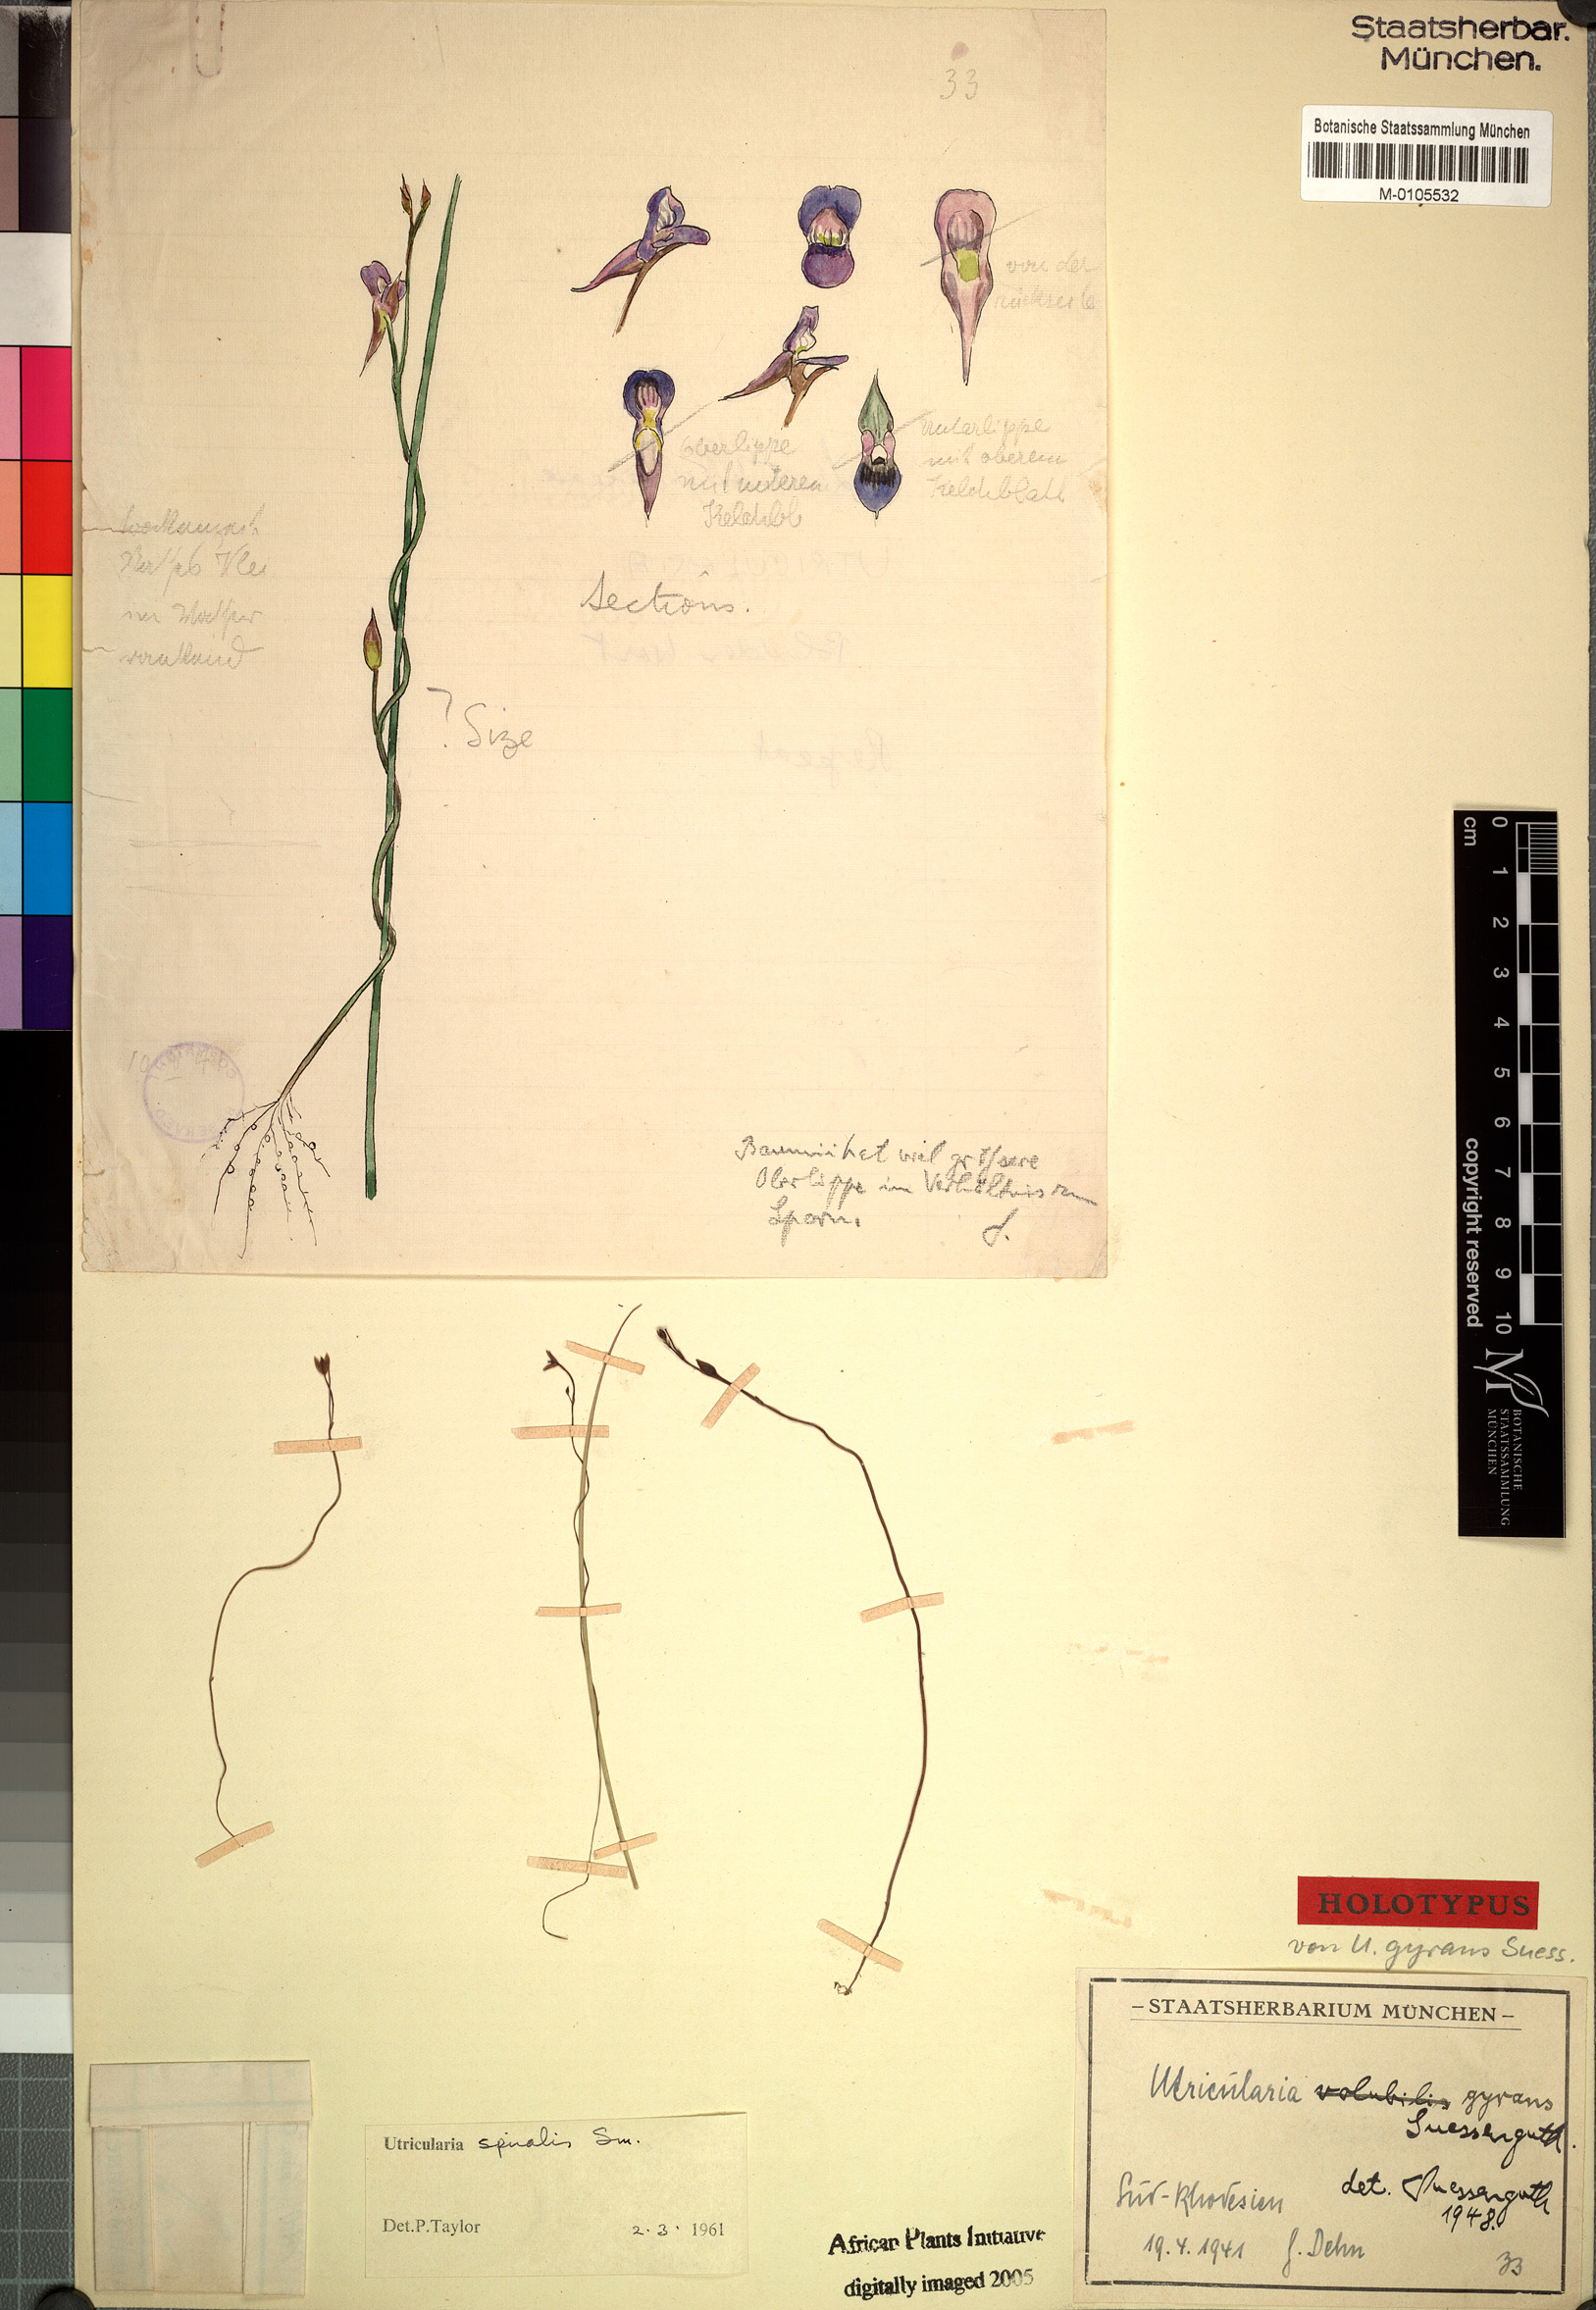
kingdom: Plantae
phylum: Tracheophyta
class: Magnoliopsida
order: Lamiales
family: Lentibulariaceae
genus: Utricularia
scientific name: Utricularia spiralis
